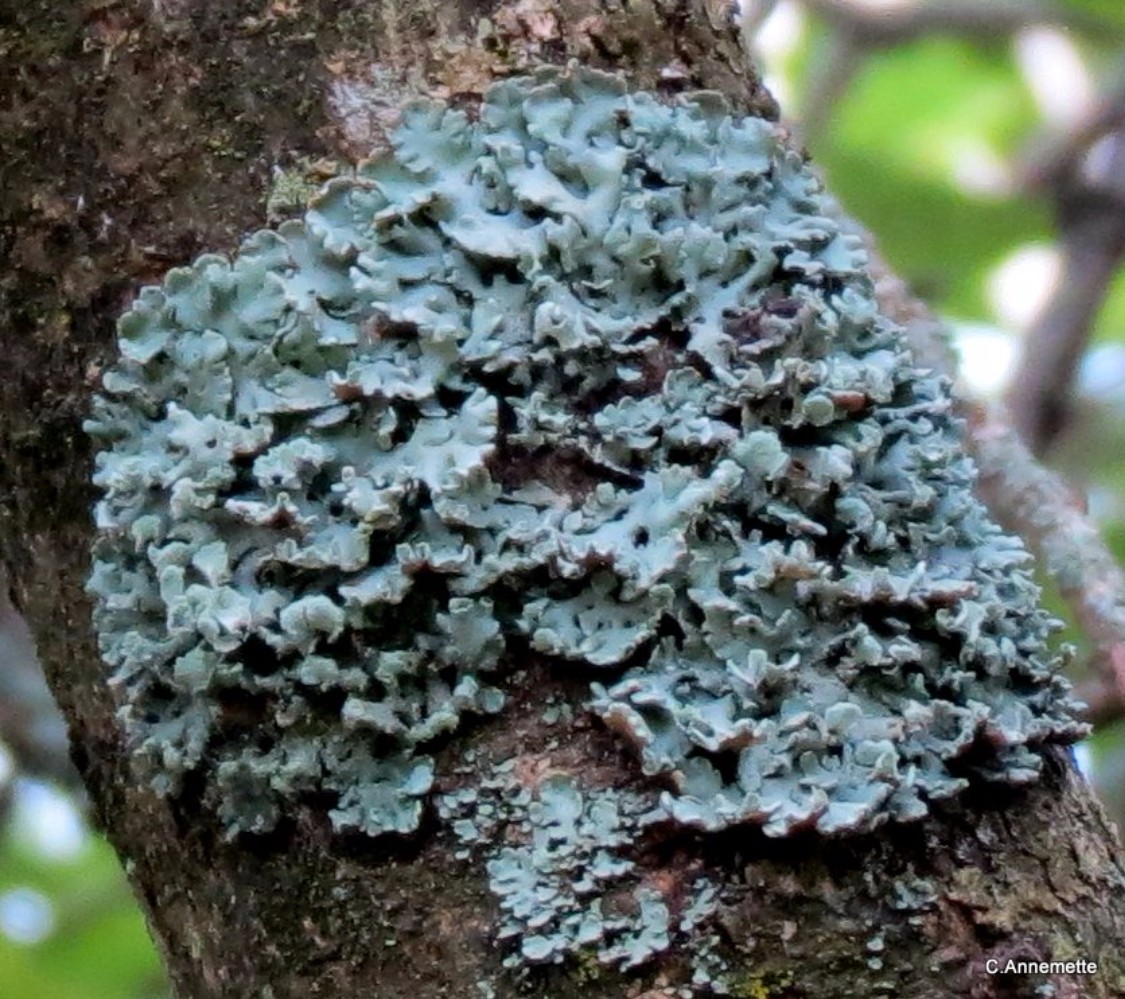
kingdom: Fungi
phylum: Ascomycota
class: Lecanoromycetes
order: Lecanorales
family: Parmeliaceae
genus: Hypogymnia
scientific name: Hypogymnia physodes
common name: almindelig kvistlav
